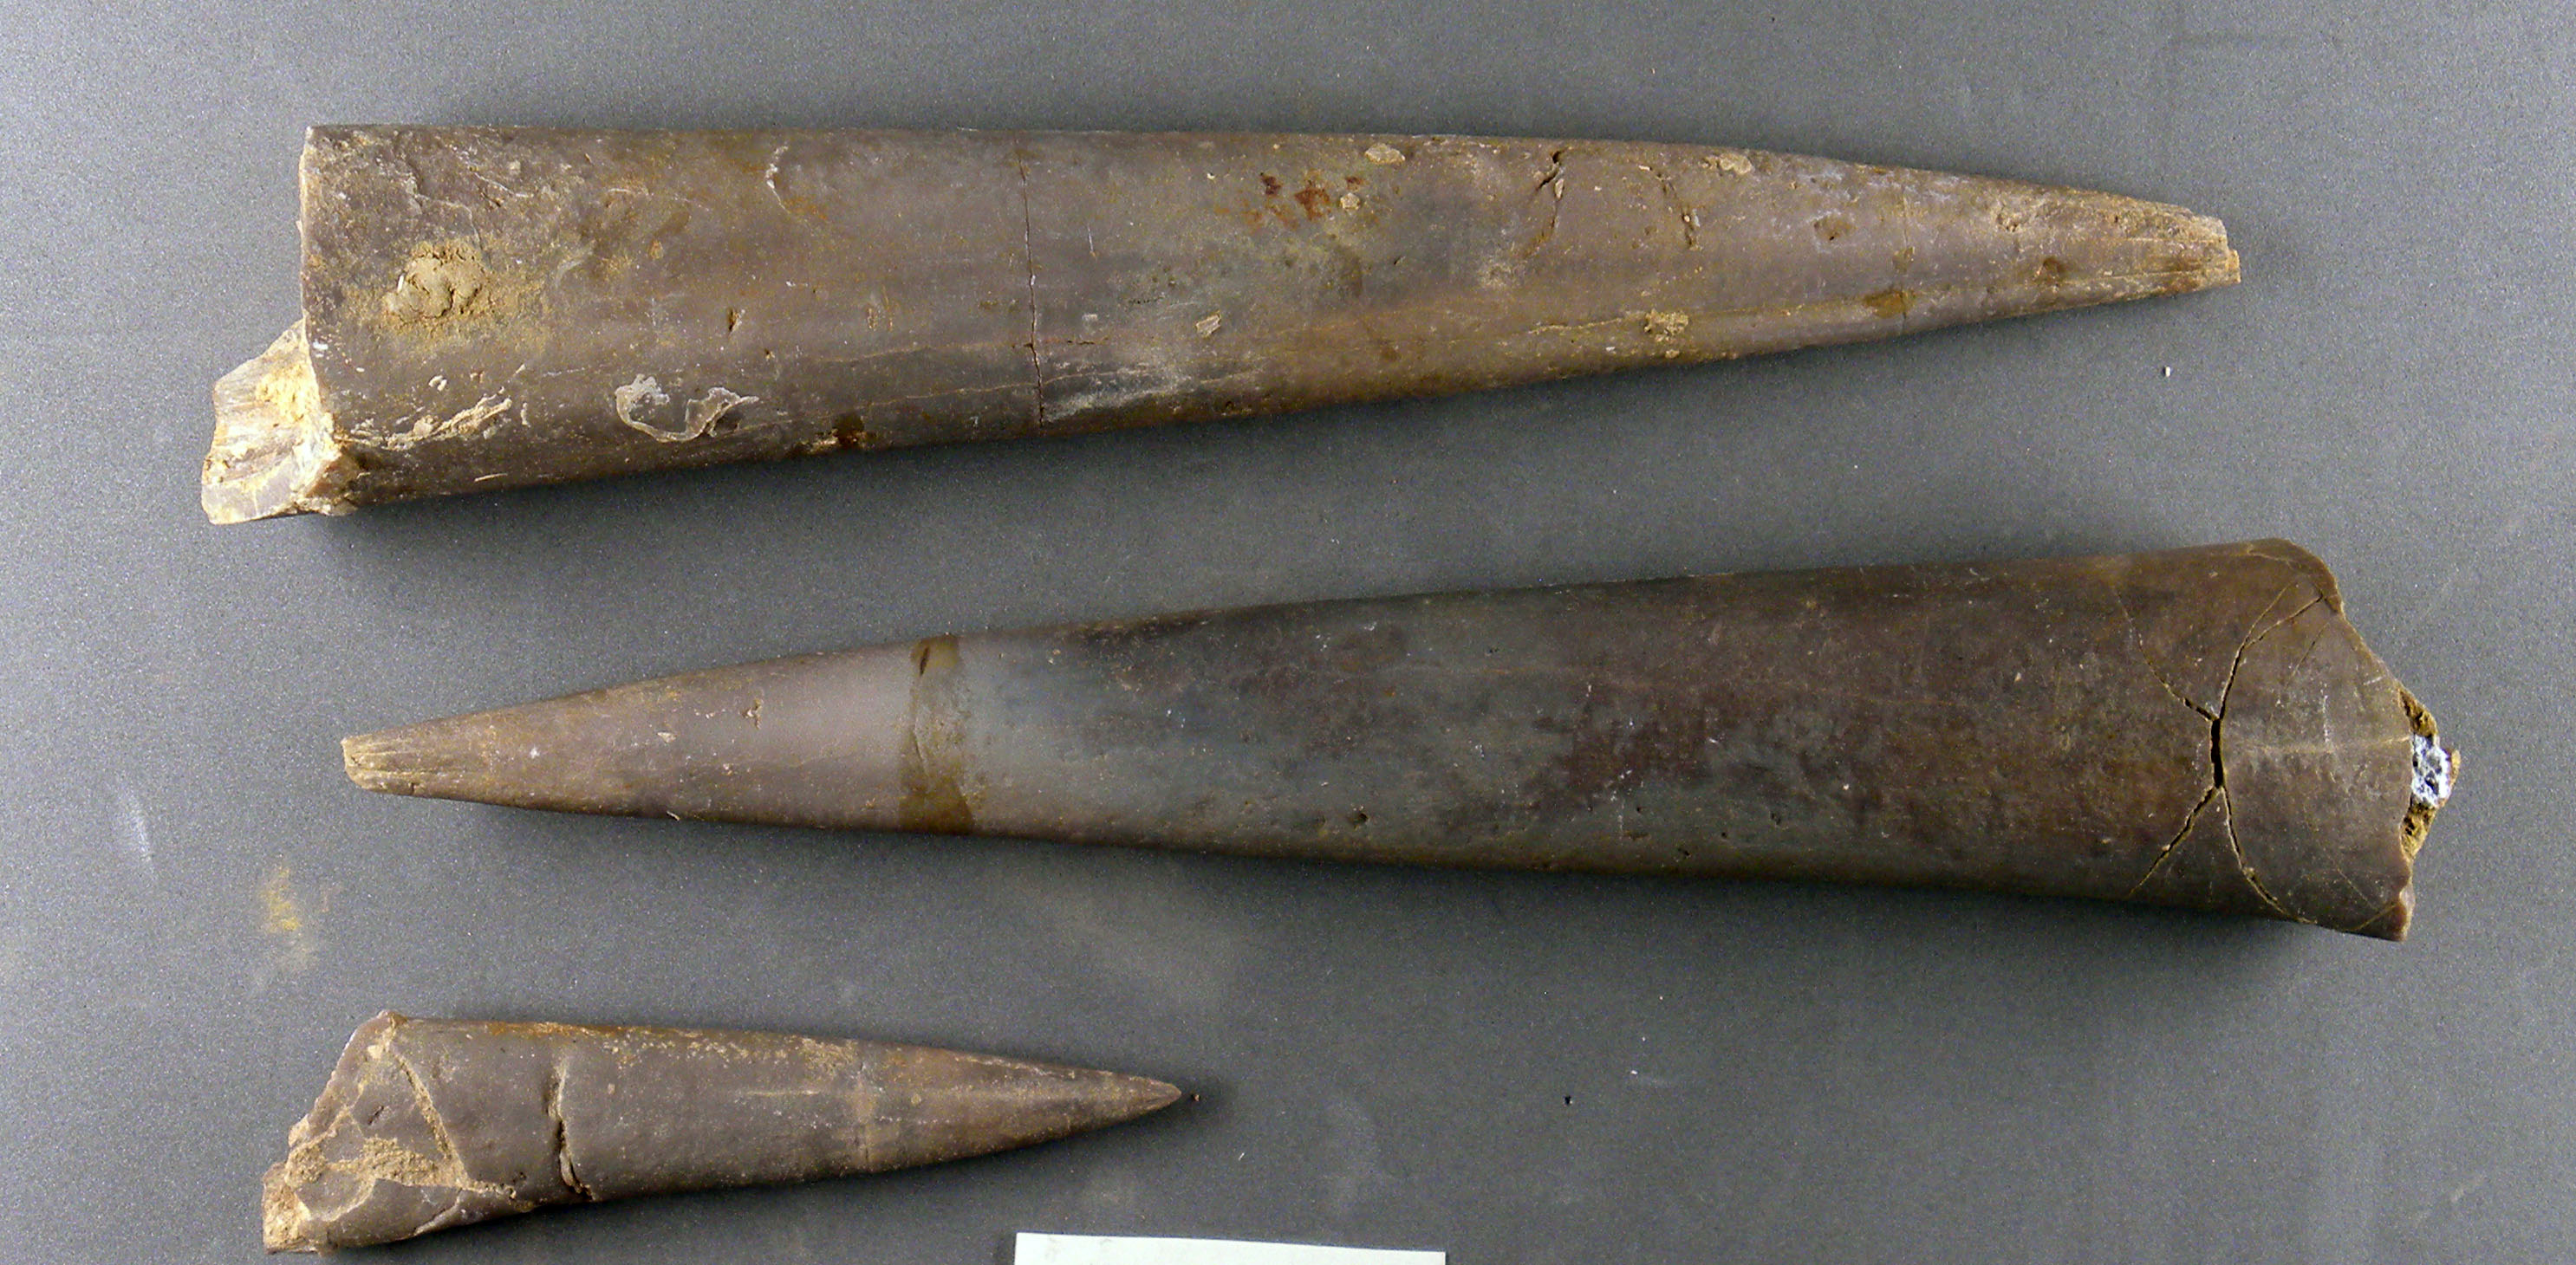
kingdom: Animalia
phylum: Mollusca
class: Cephalopoda
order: Belemnitida
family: Megateuthididae
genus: Megateuthis
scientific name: Megateuthis
